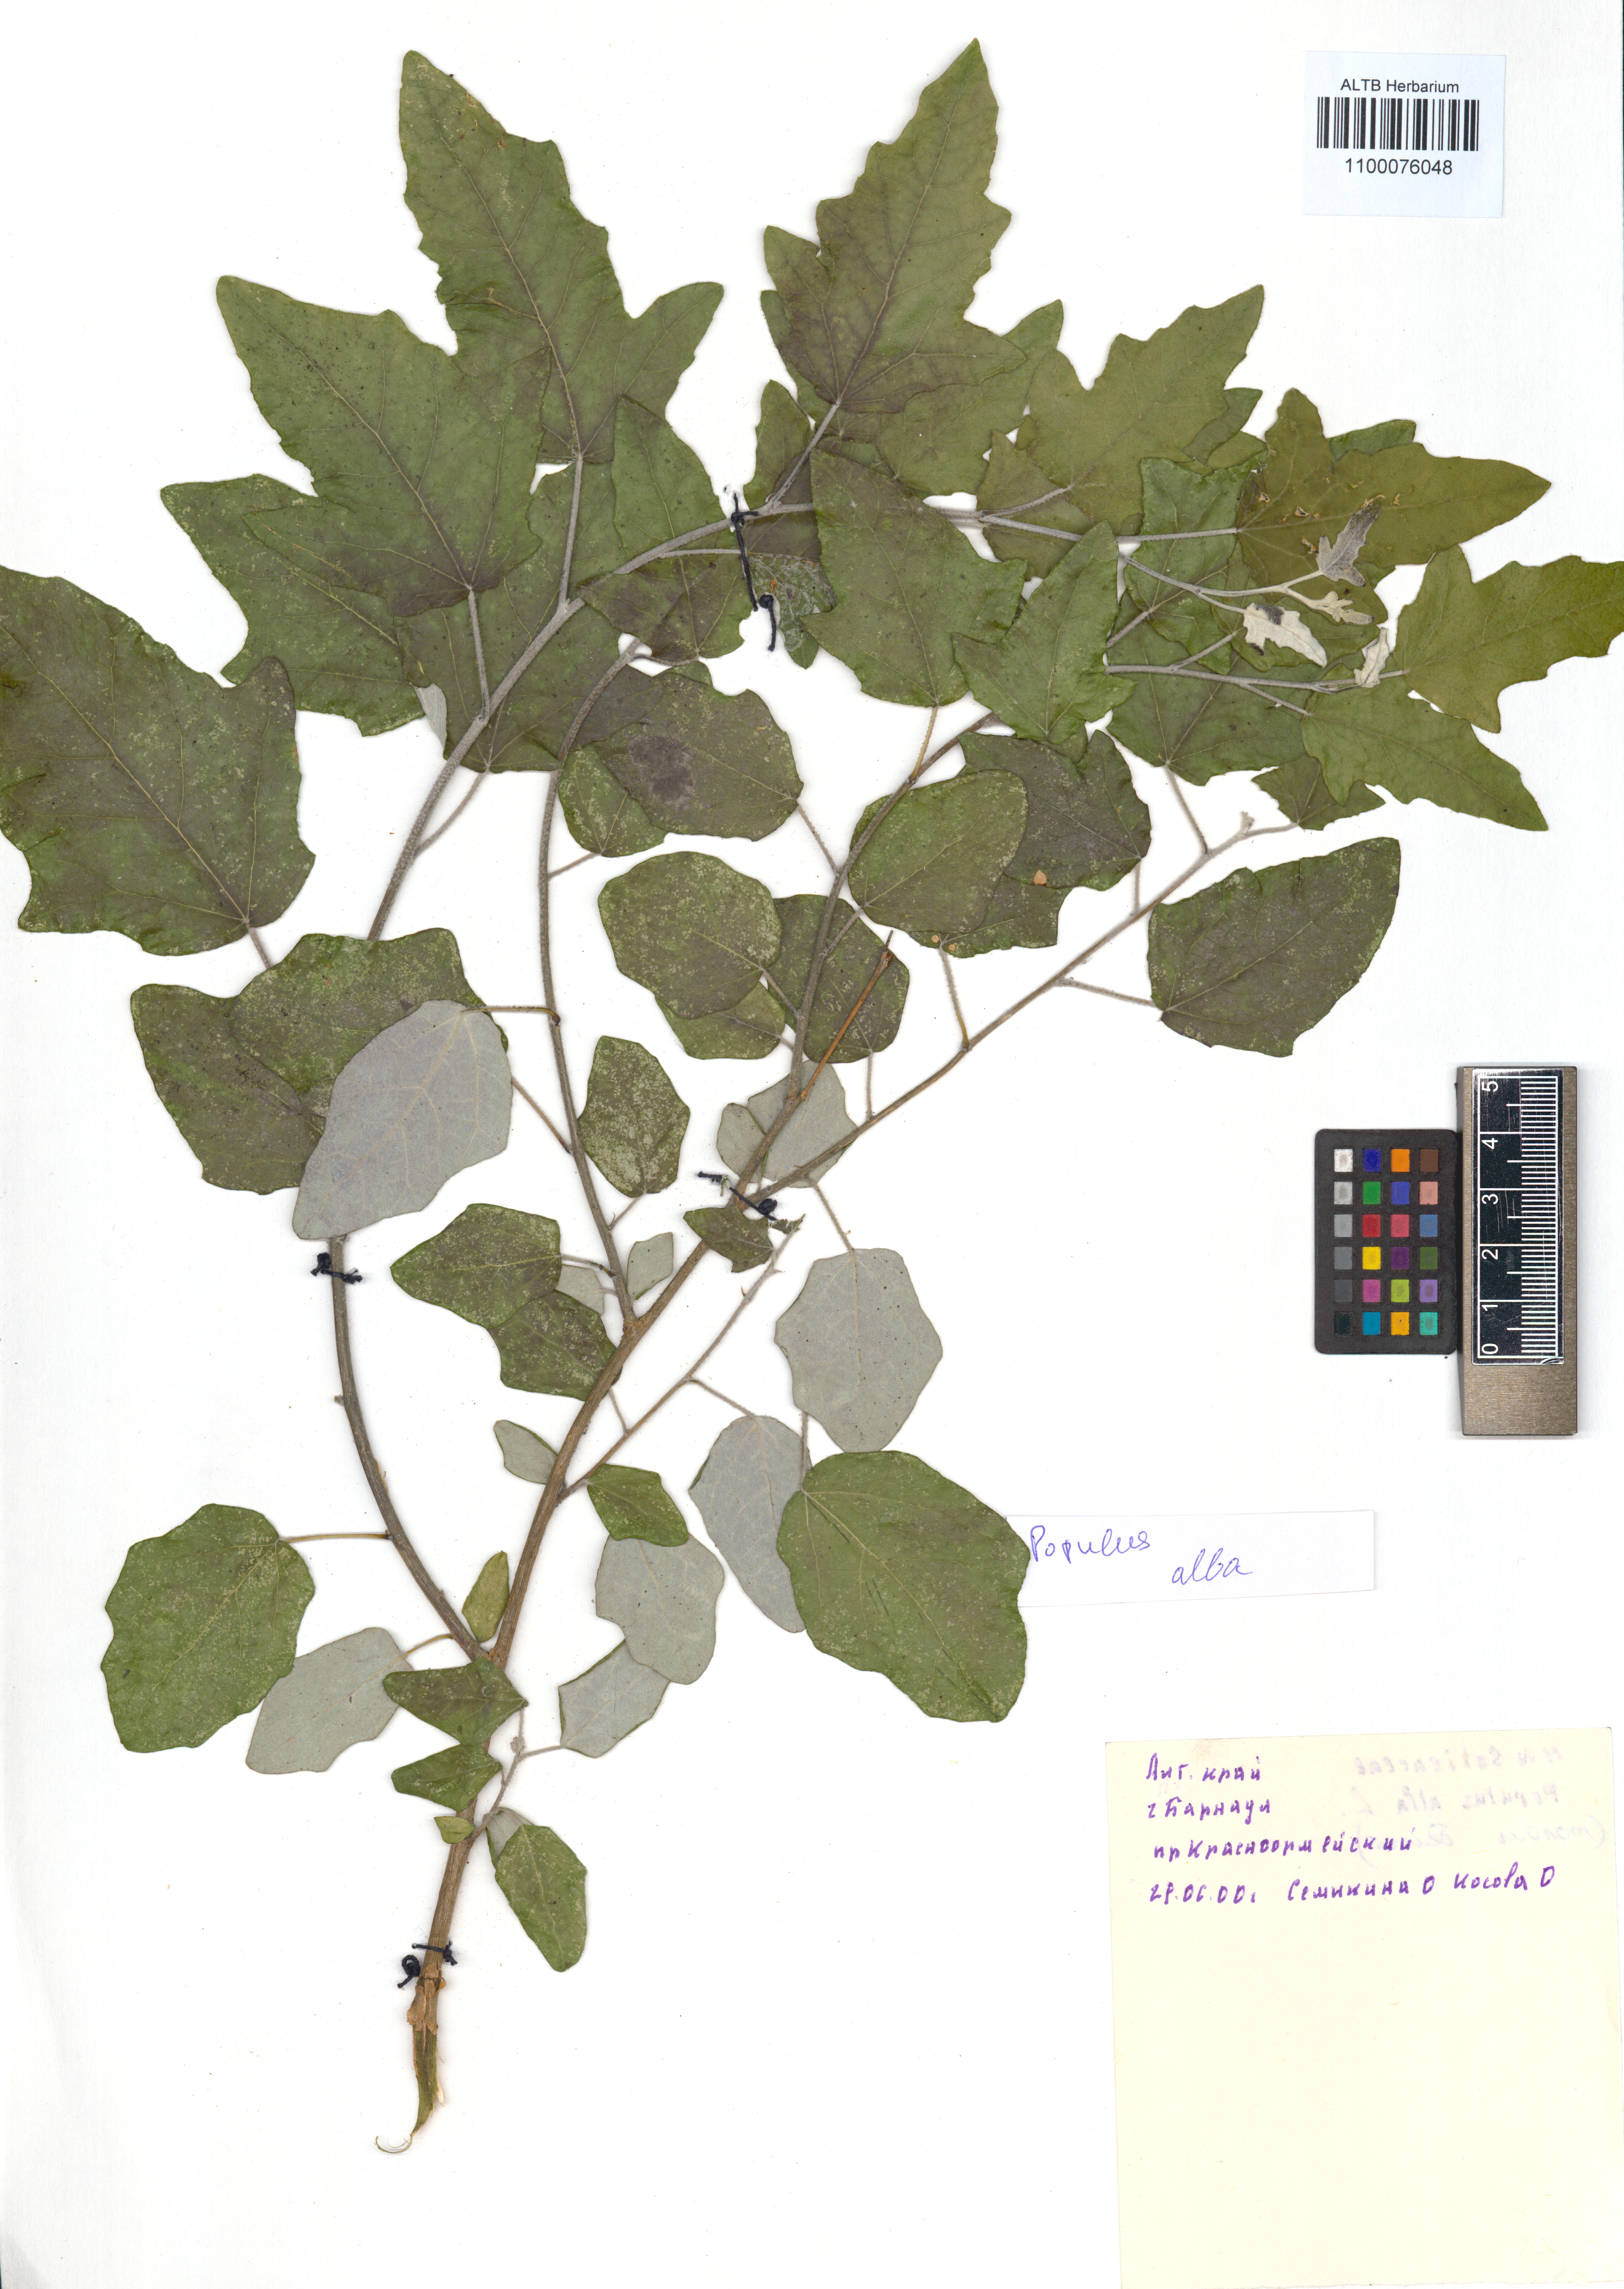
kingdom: Plantae
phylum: Tracheophyta
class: Magnoliopsida
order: Malpighiales
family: Salicaceae
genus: Populus
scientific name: Populus alba
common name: White poplar
